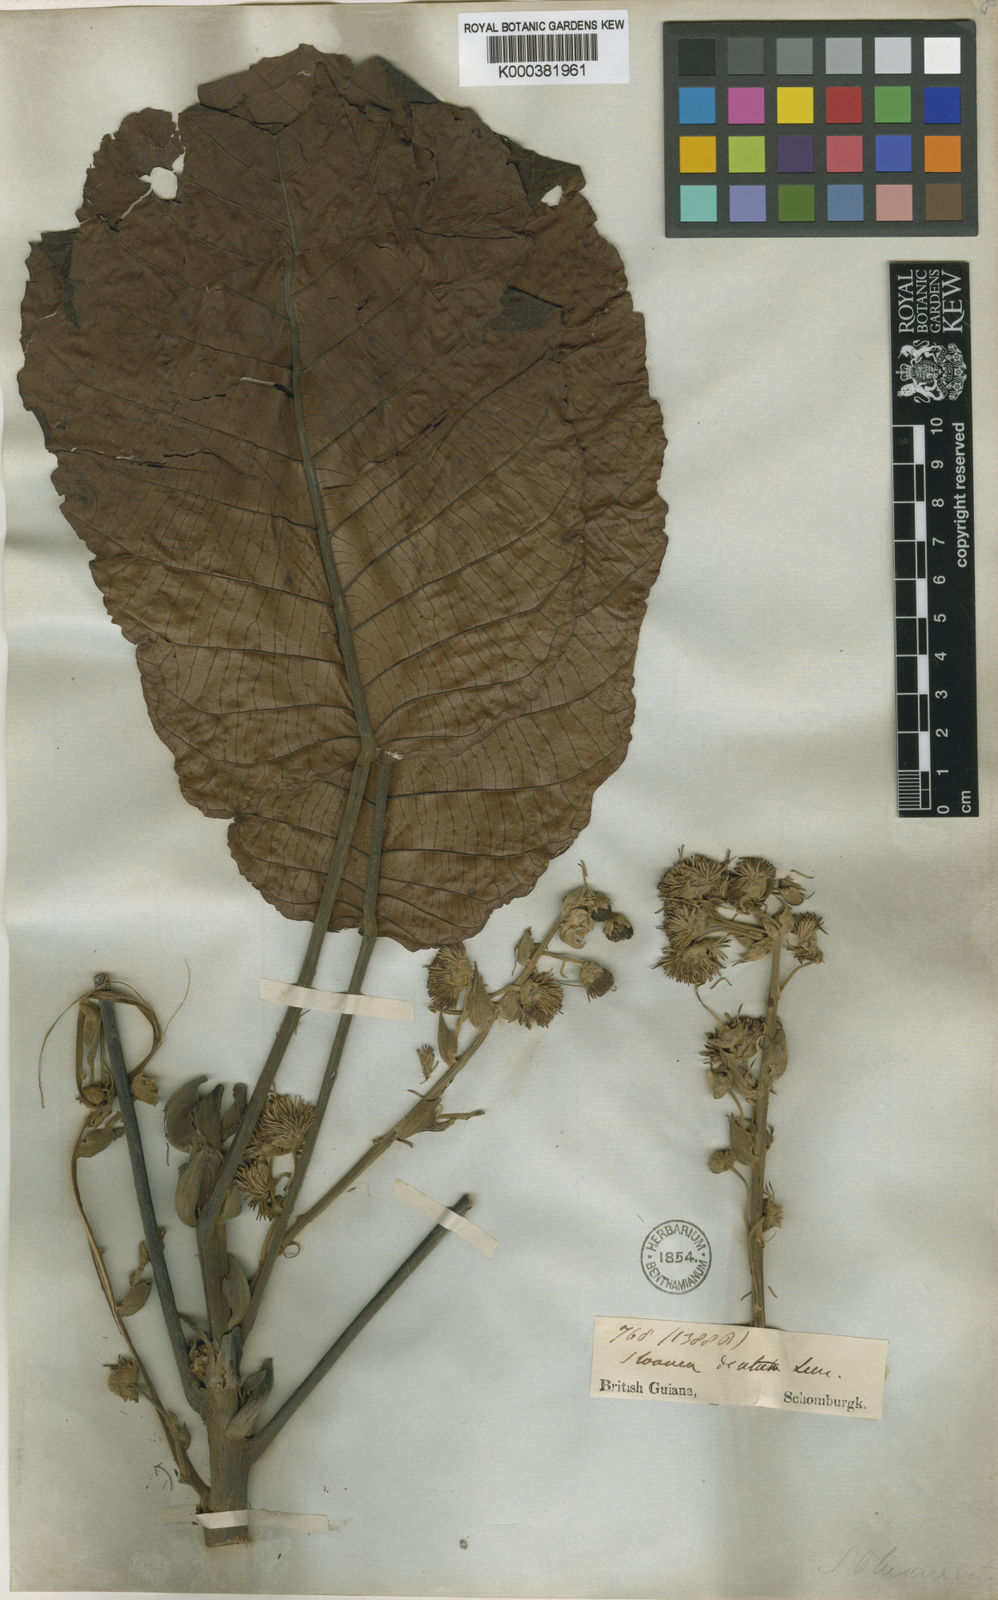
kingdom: Plantae
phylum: Tracheophyta
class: Magnoliopsida
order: Oxalidales
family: Elaeocarpaceae
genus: Sloanea
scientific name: Sloanea grandiflora
